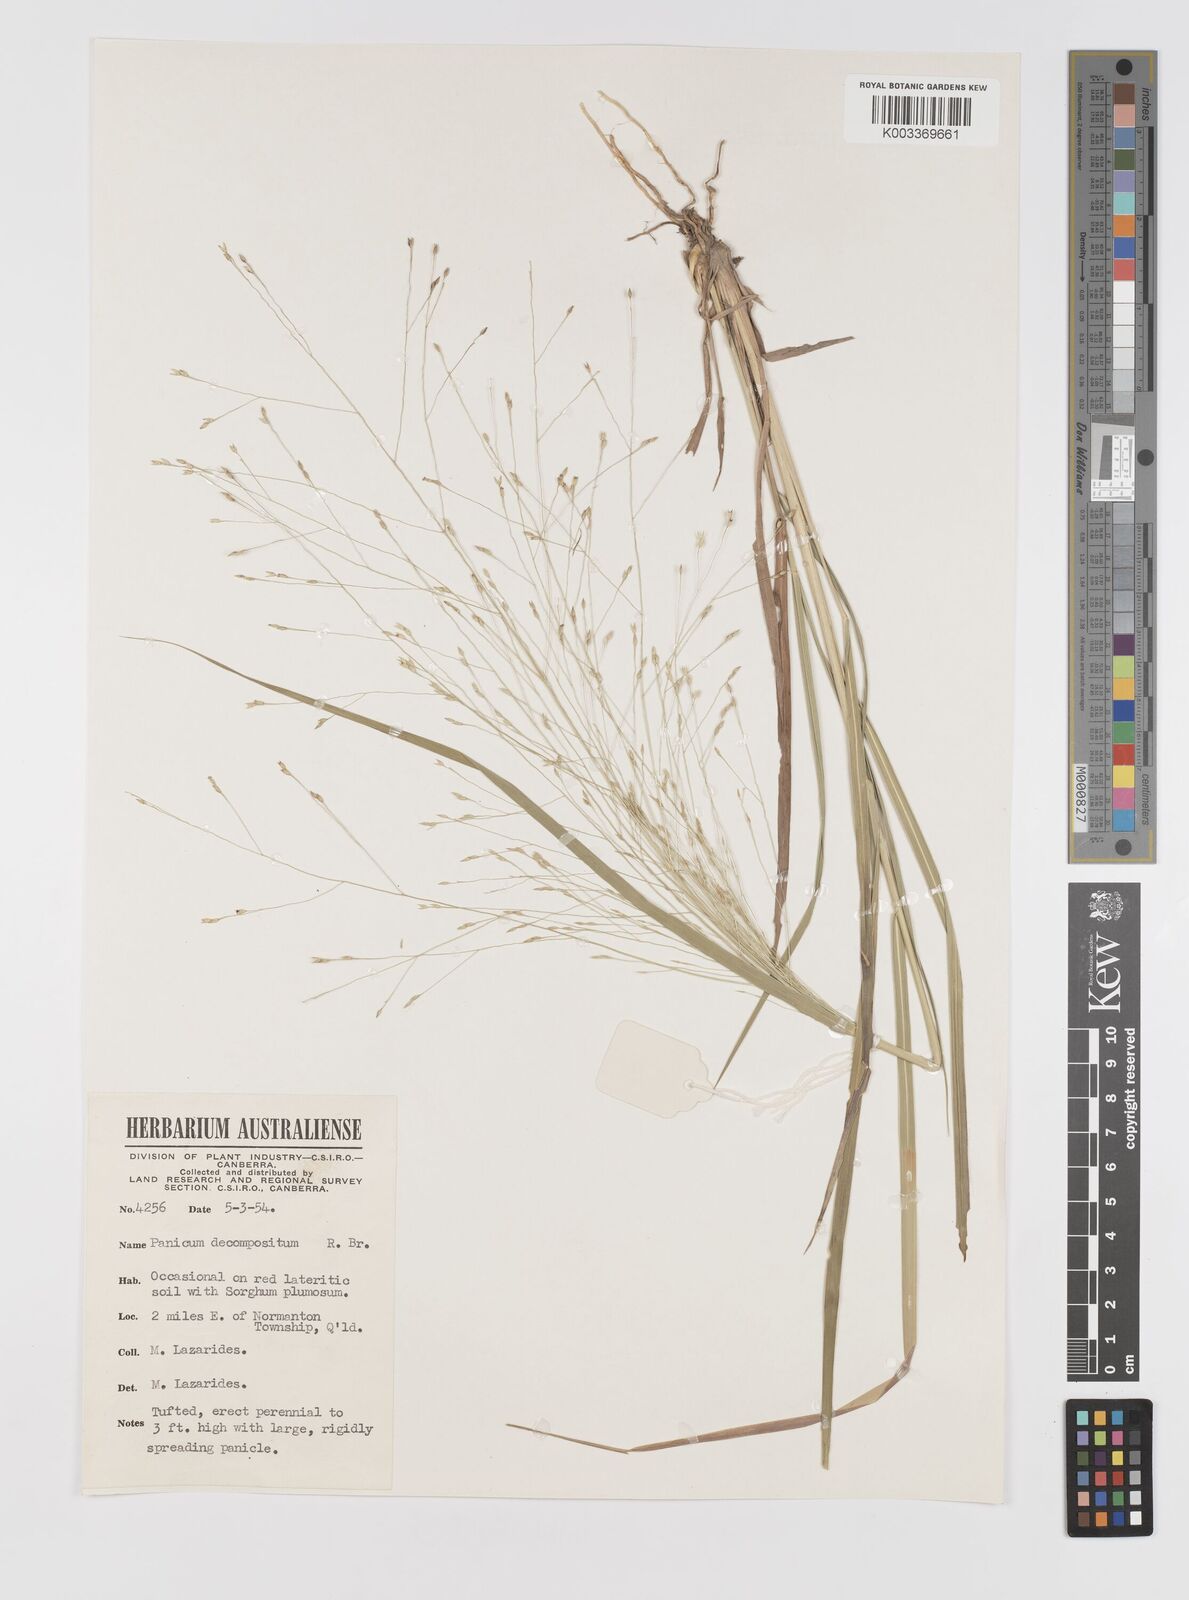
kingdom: Plantae
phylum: Tracheophyta
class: Liliopsida
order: Poales
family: Poaceae
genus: Panicum
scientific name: Panicum decompositum
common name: Australian millet
